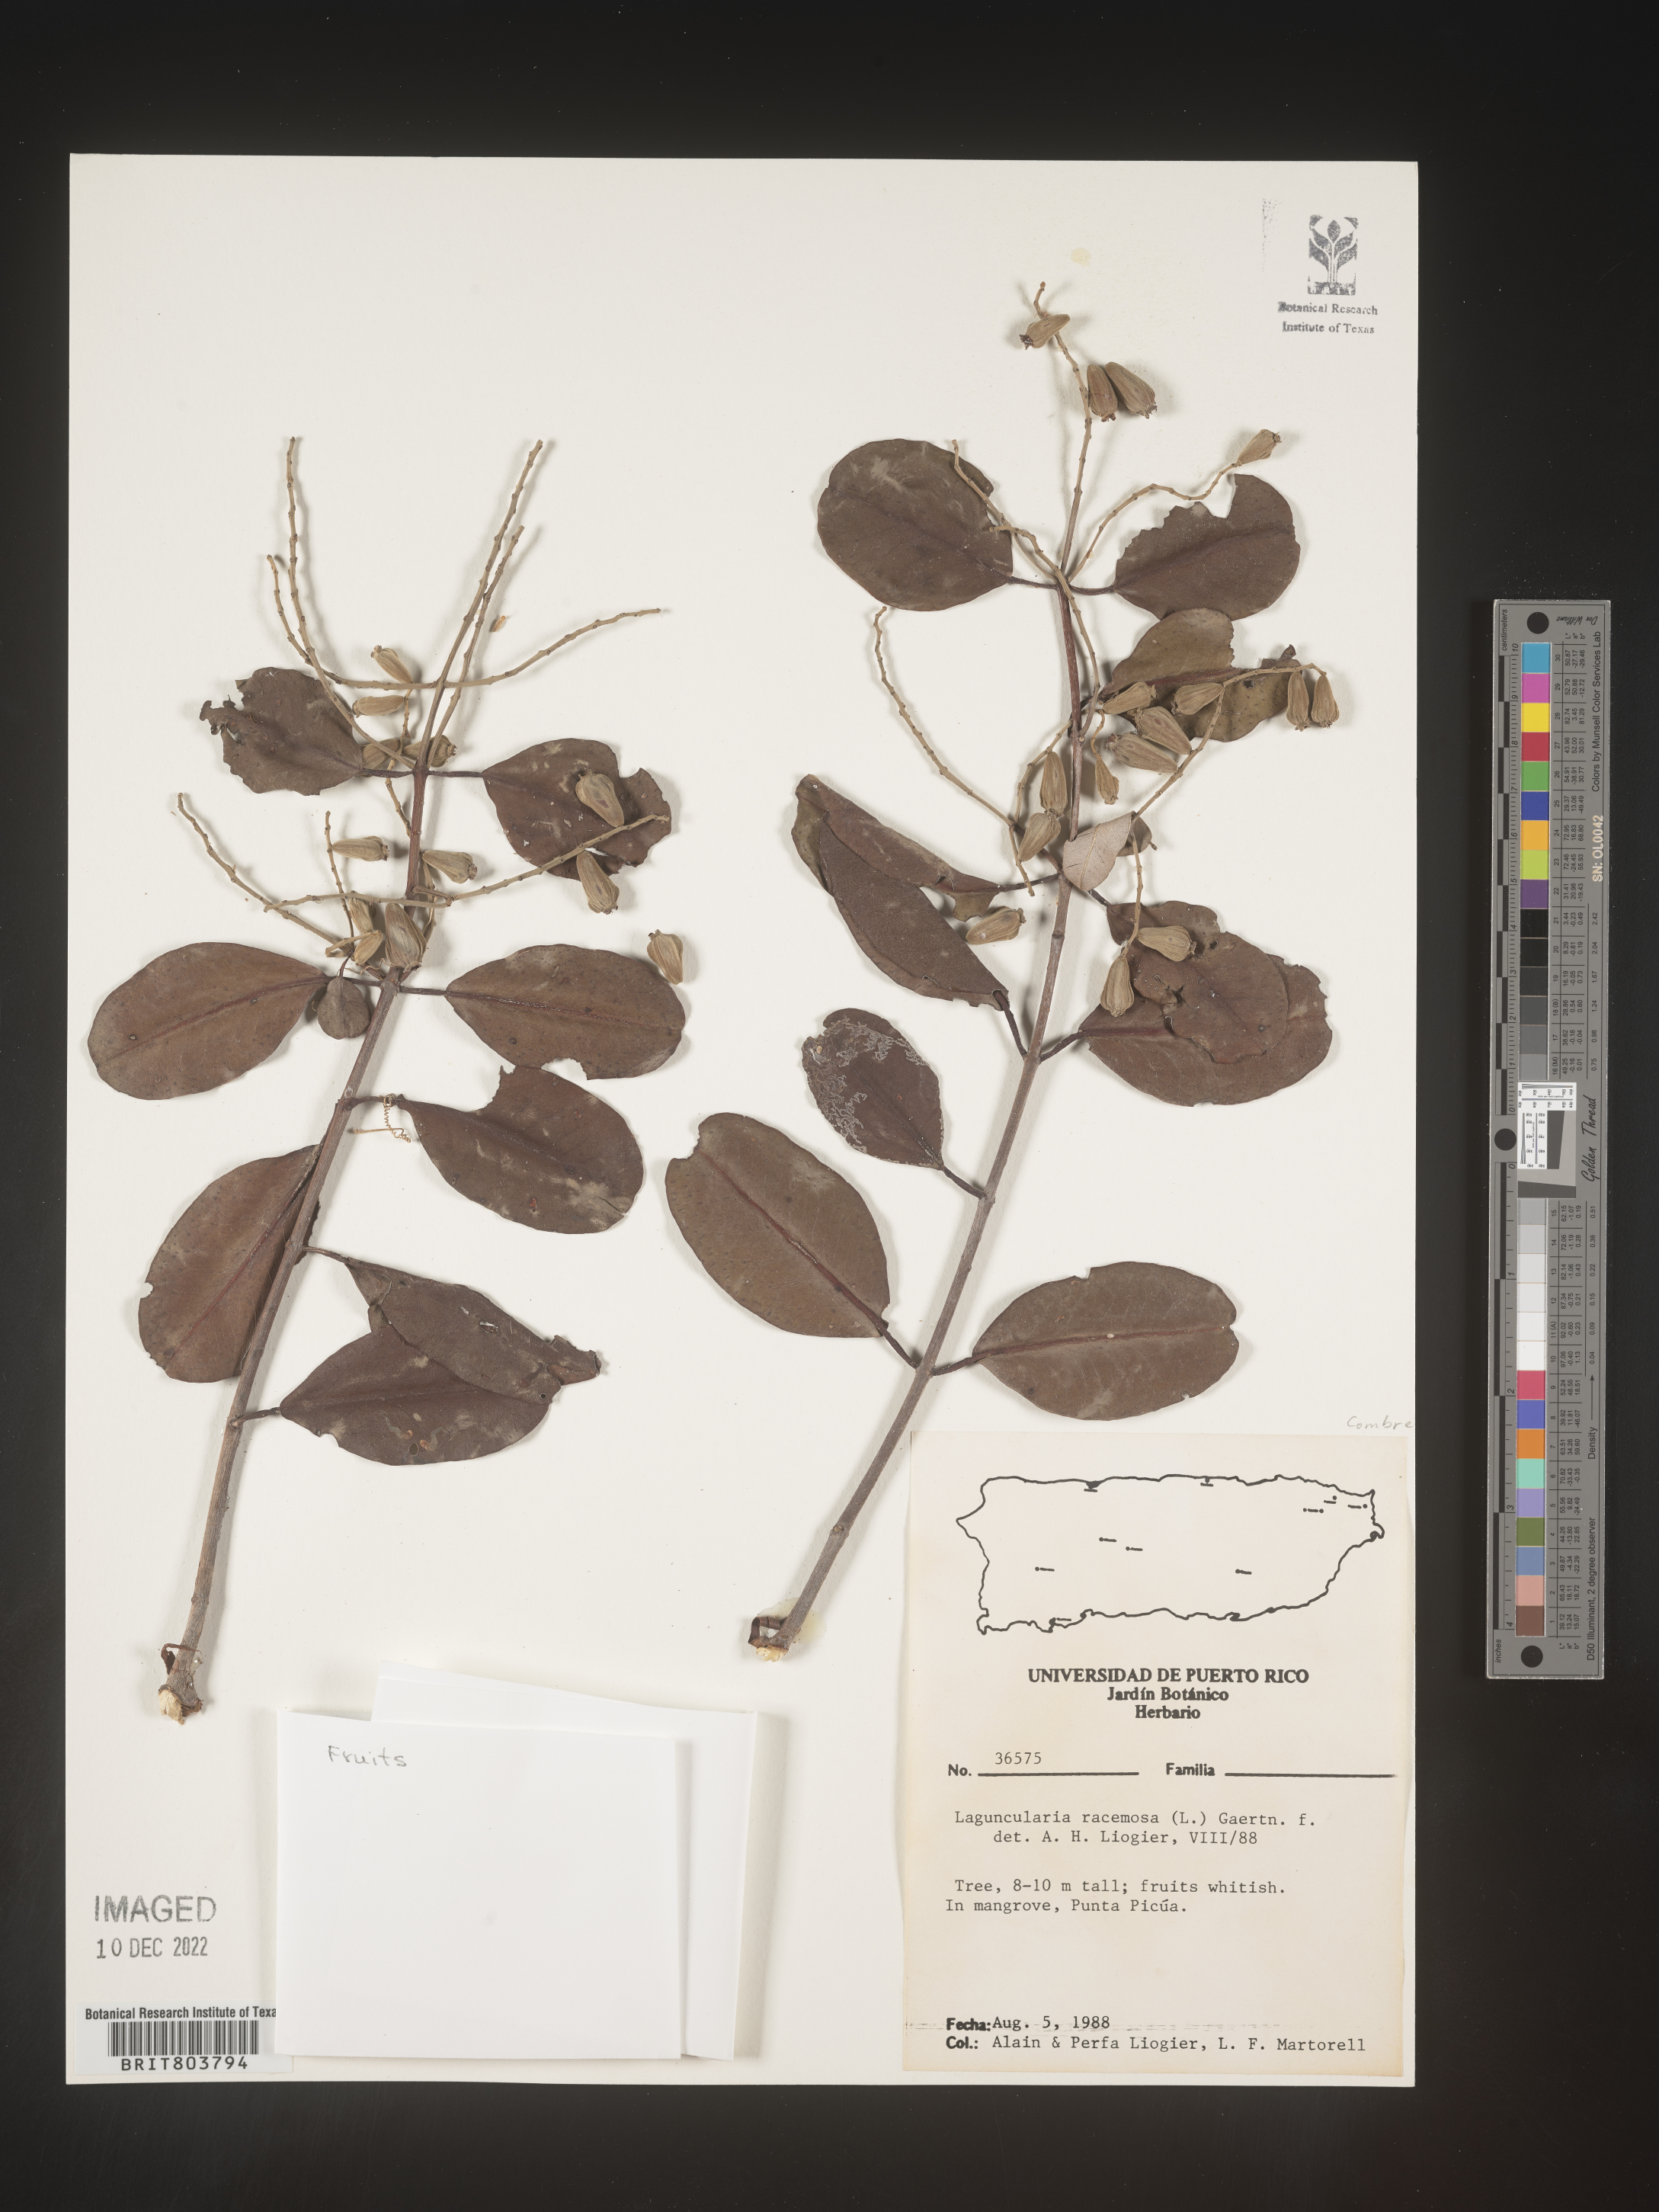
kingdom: Plantae
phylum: Tracheophyta
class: Magnoliopsida
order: Myrtales
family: Combretaceae
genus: Laguncularia
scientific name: Laguncularia
